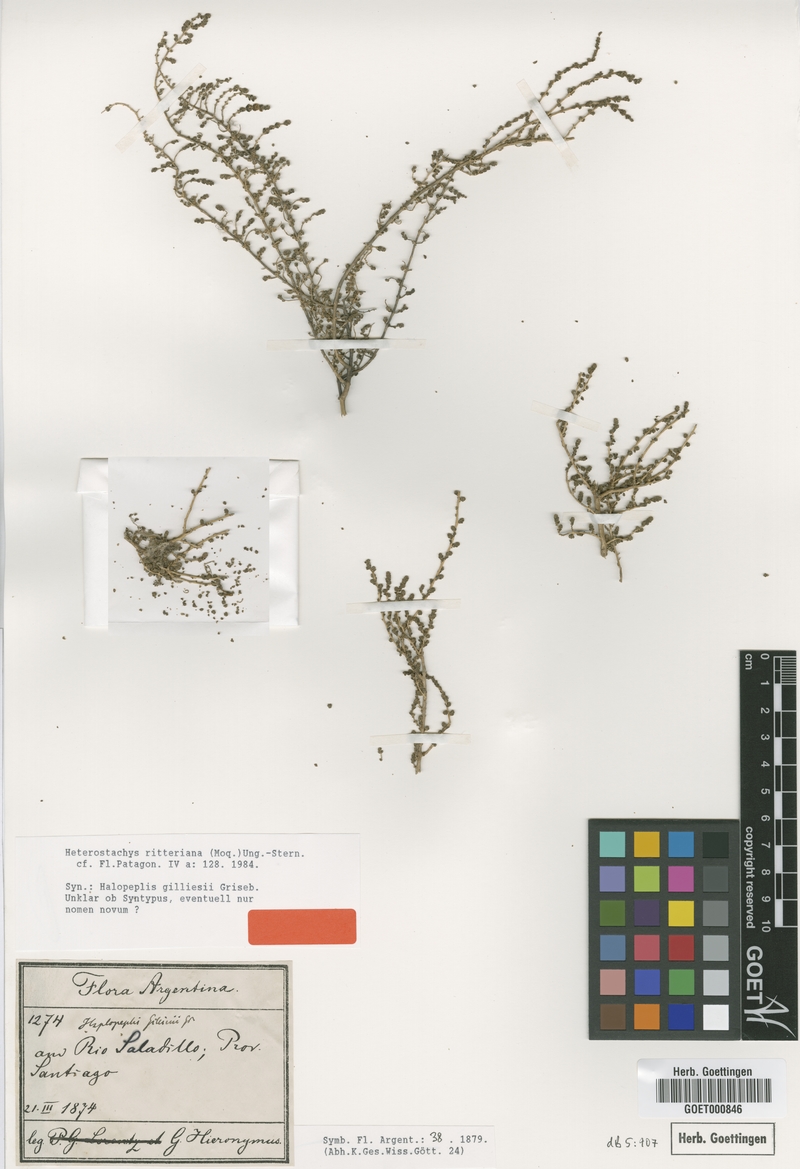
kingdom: Plantae
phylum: Tracheophyta
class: Magnoliopsida
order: Caryophyllales
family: Amaranthaceae
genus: Heterostachys
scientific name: Heterostachys ritteriana
